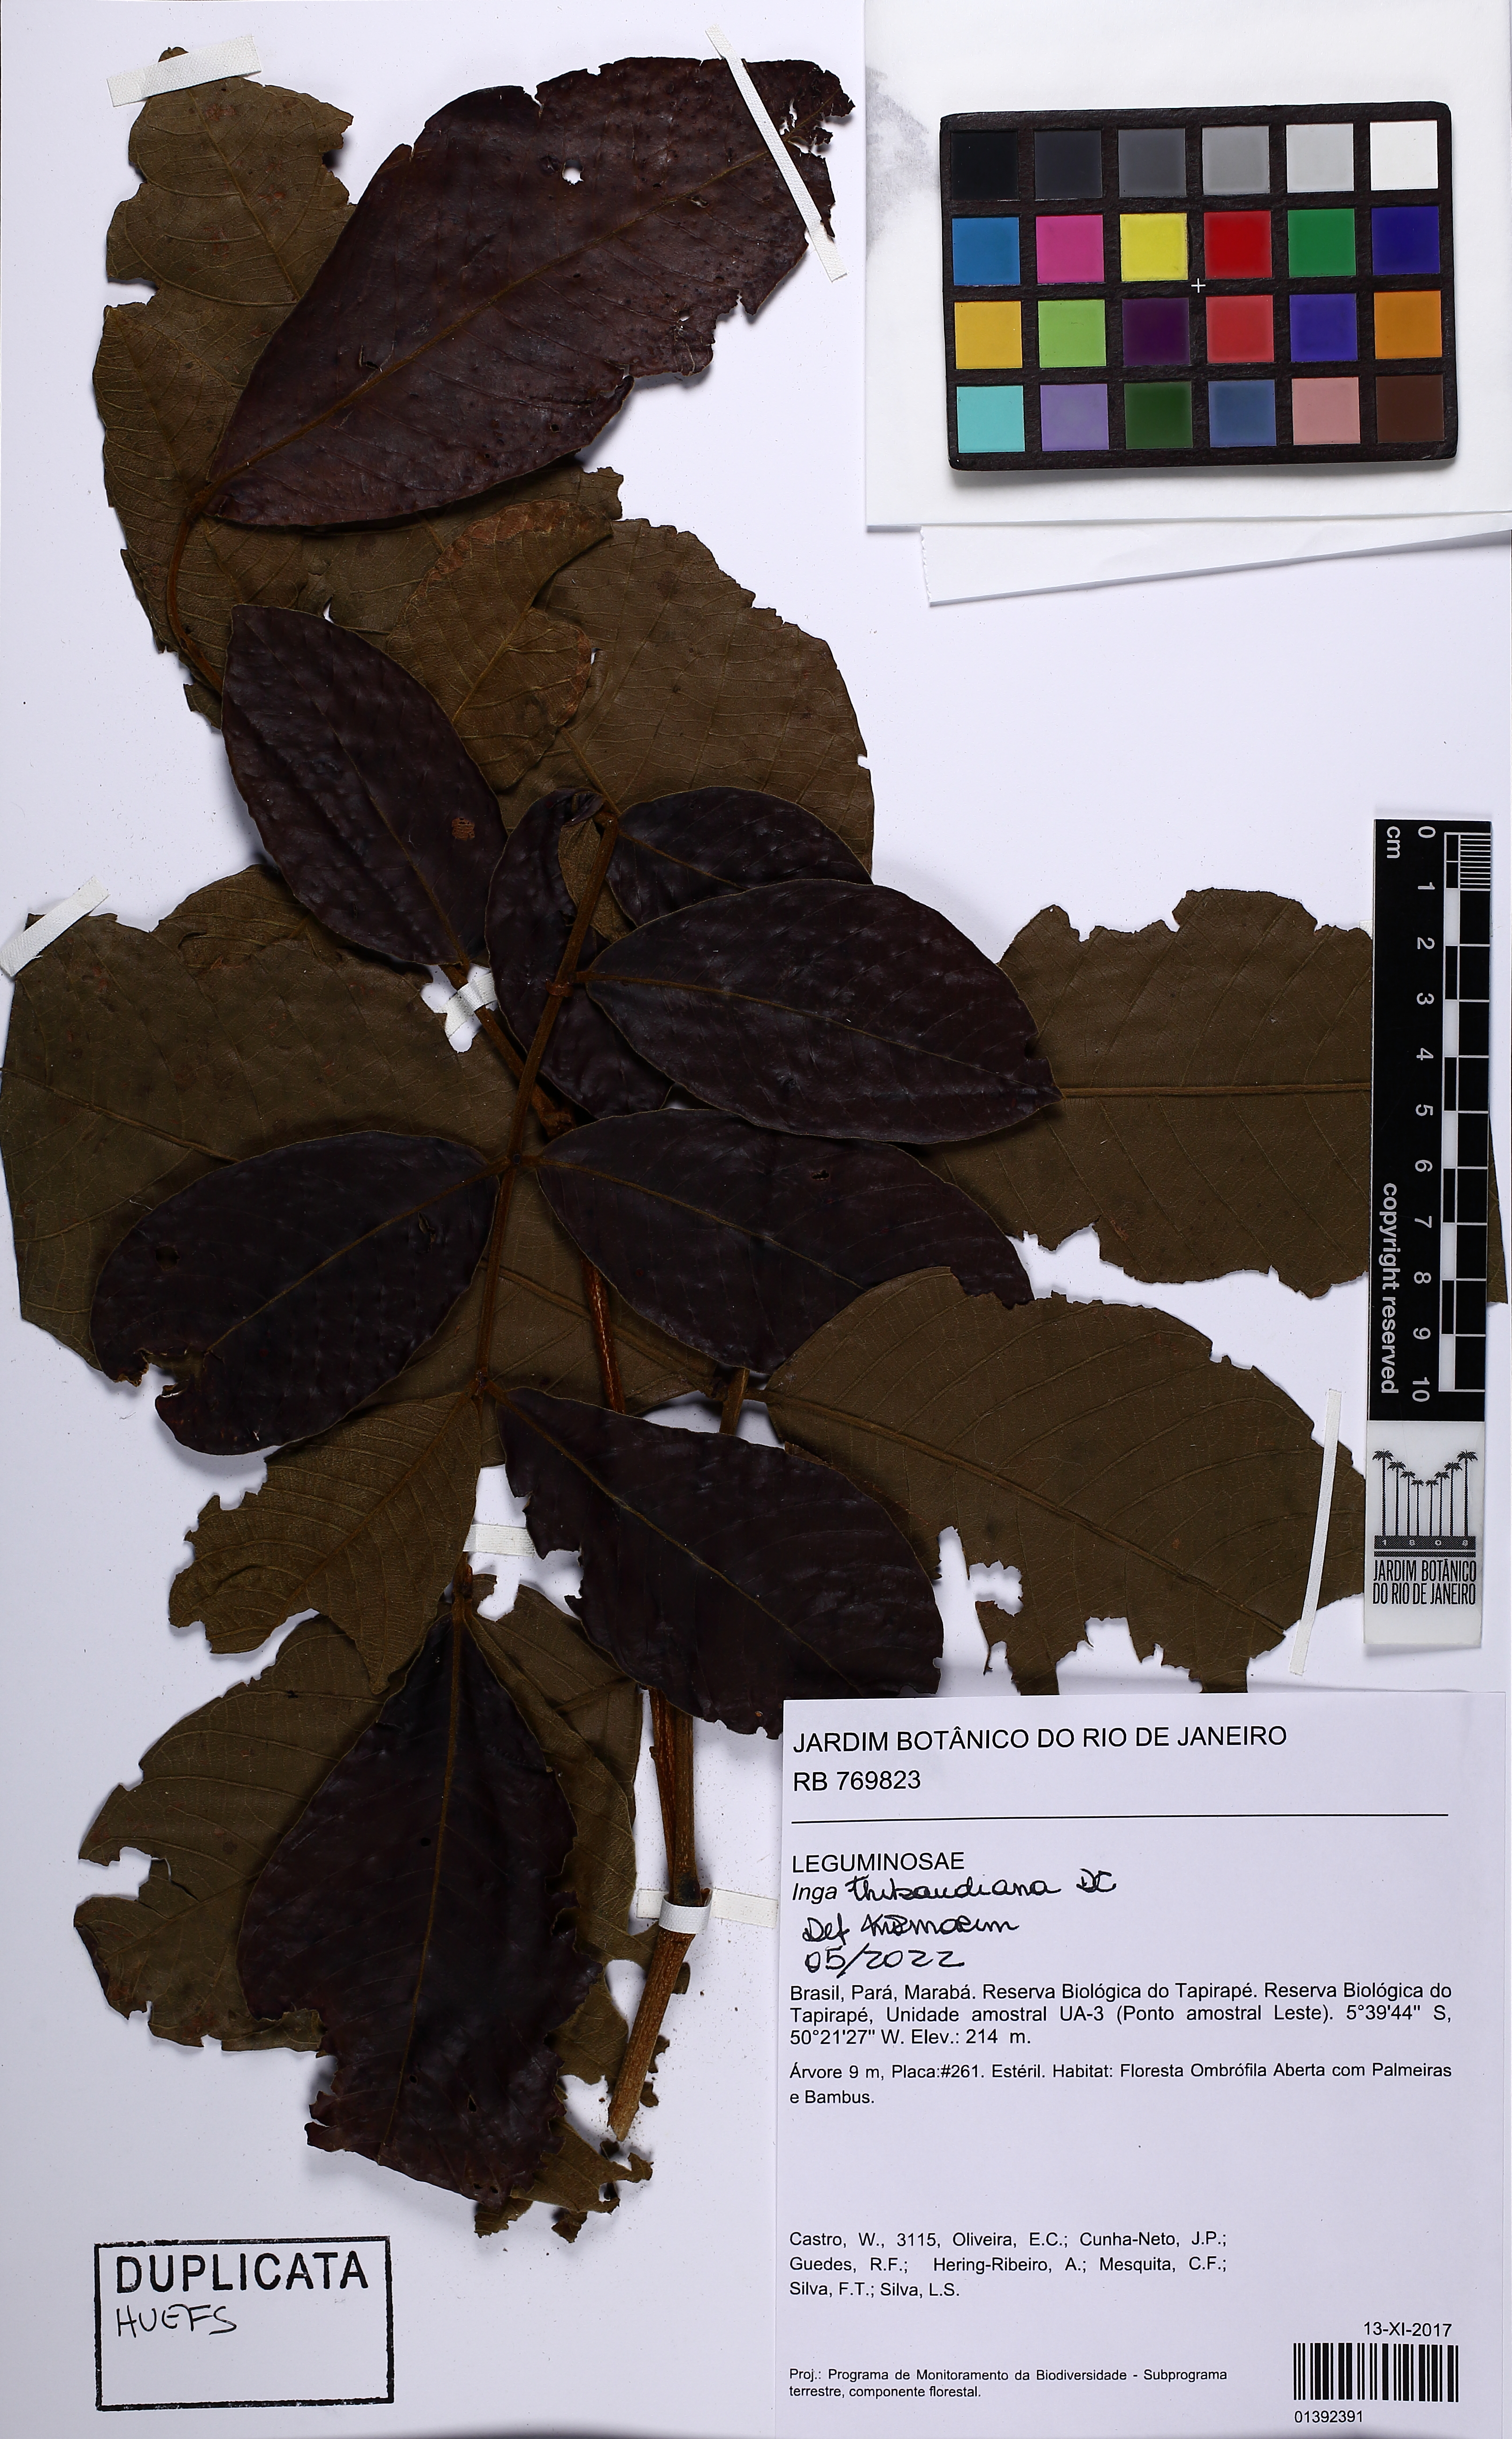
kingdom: Plantae
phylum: Tracheophyta
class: Magnoliopsida
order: Fabales
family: Fabaceae
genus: Inga
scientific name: Inga thibaudiana
